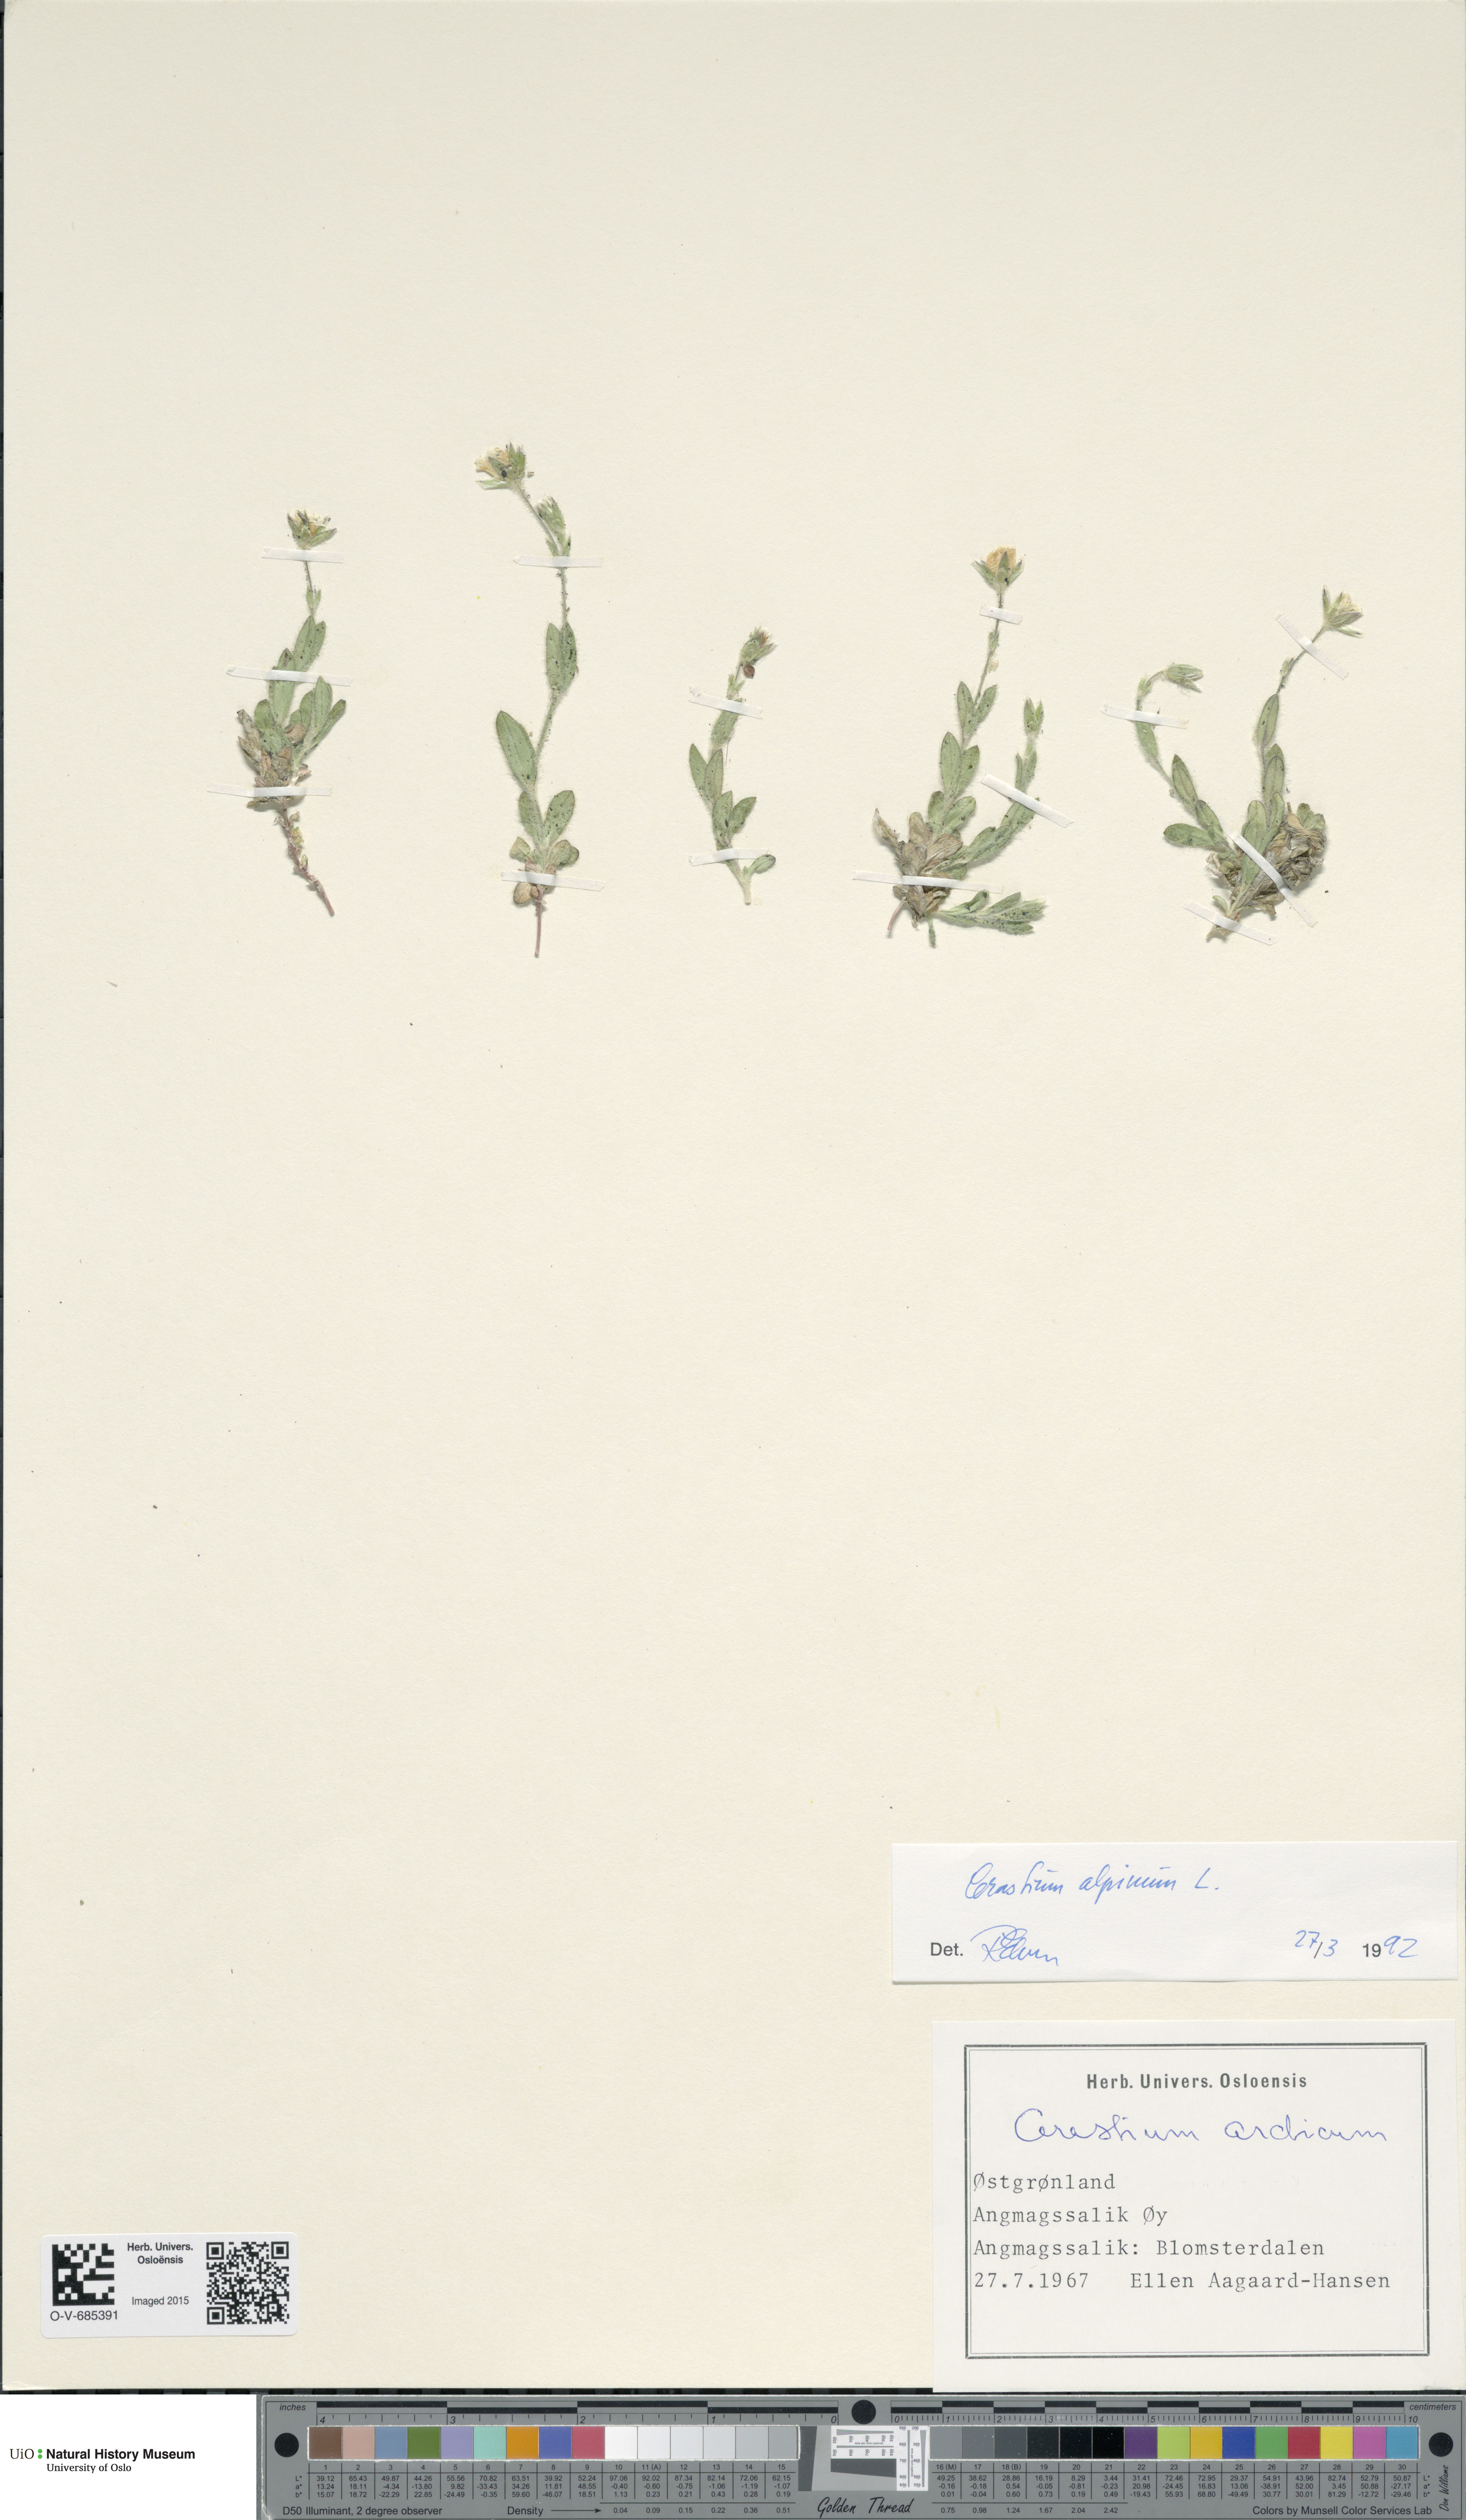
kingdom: Plantae
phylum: Tracheophyta
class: Magnoliopsida
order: Caryophyllales
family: Caryophyllaceae
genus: Cerastium
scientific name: Cerastium alpinum
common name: Alpine mouse-ear
